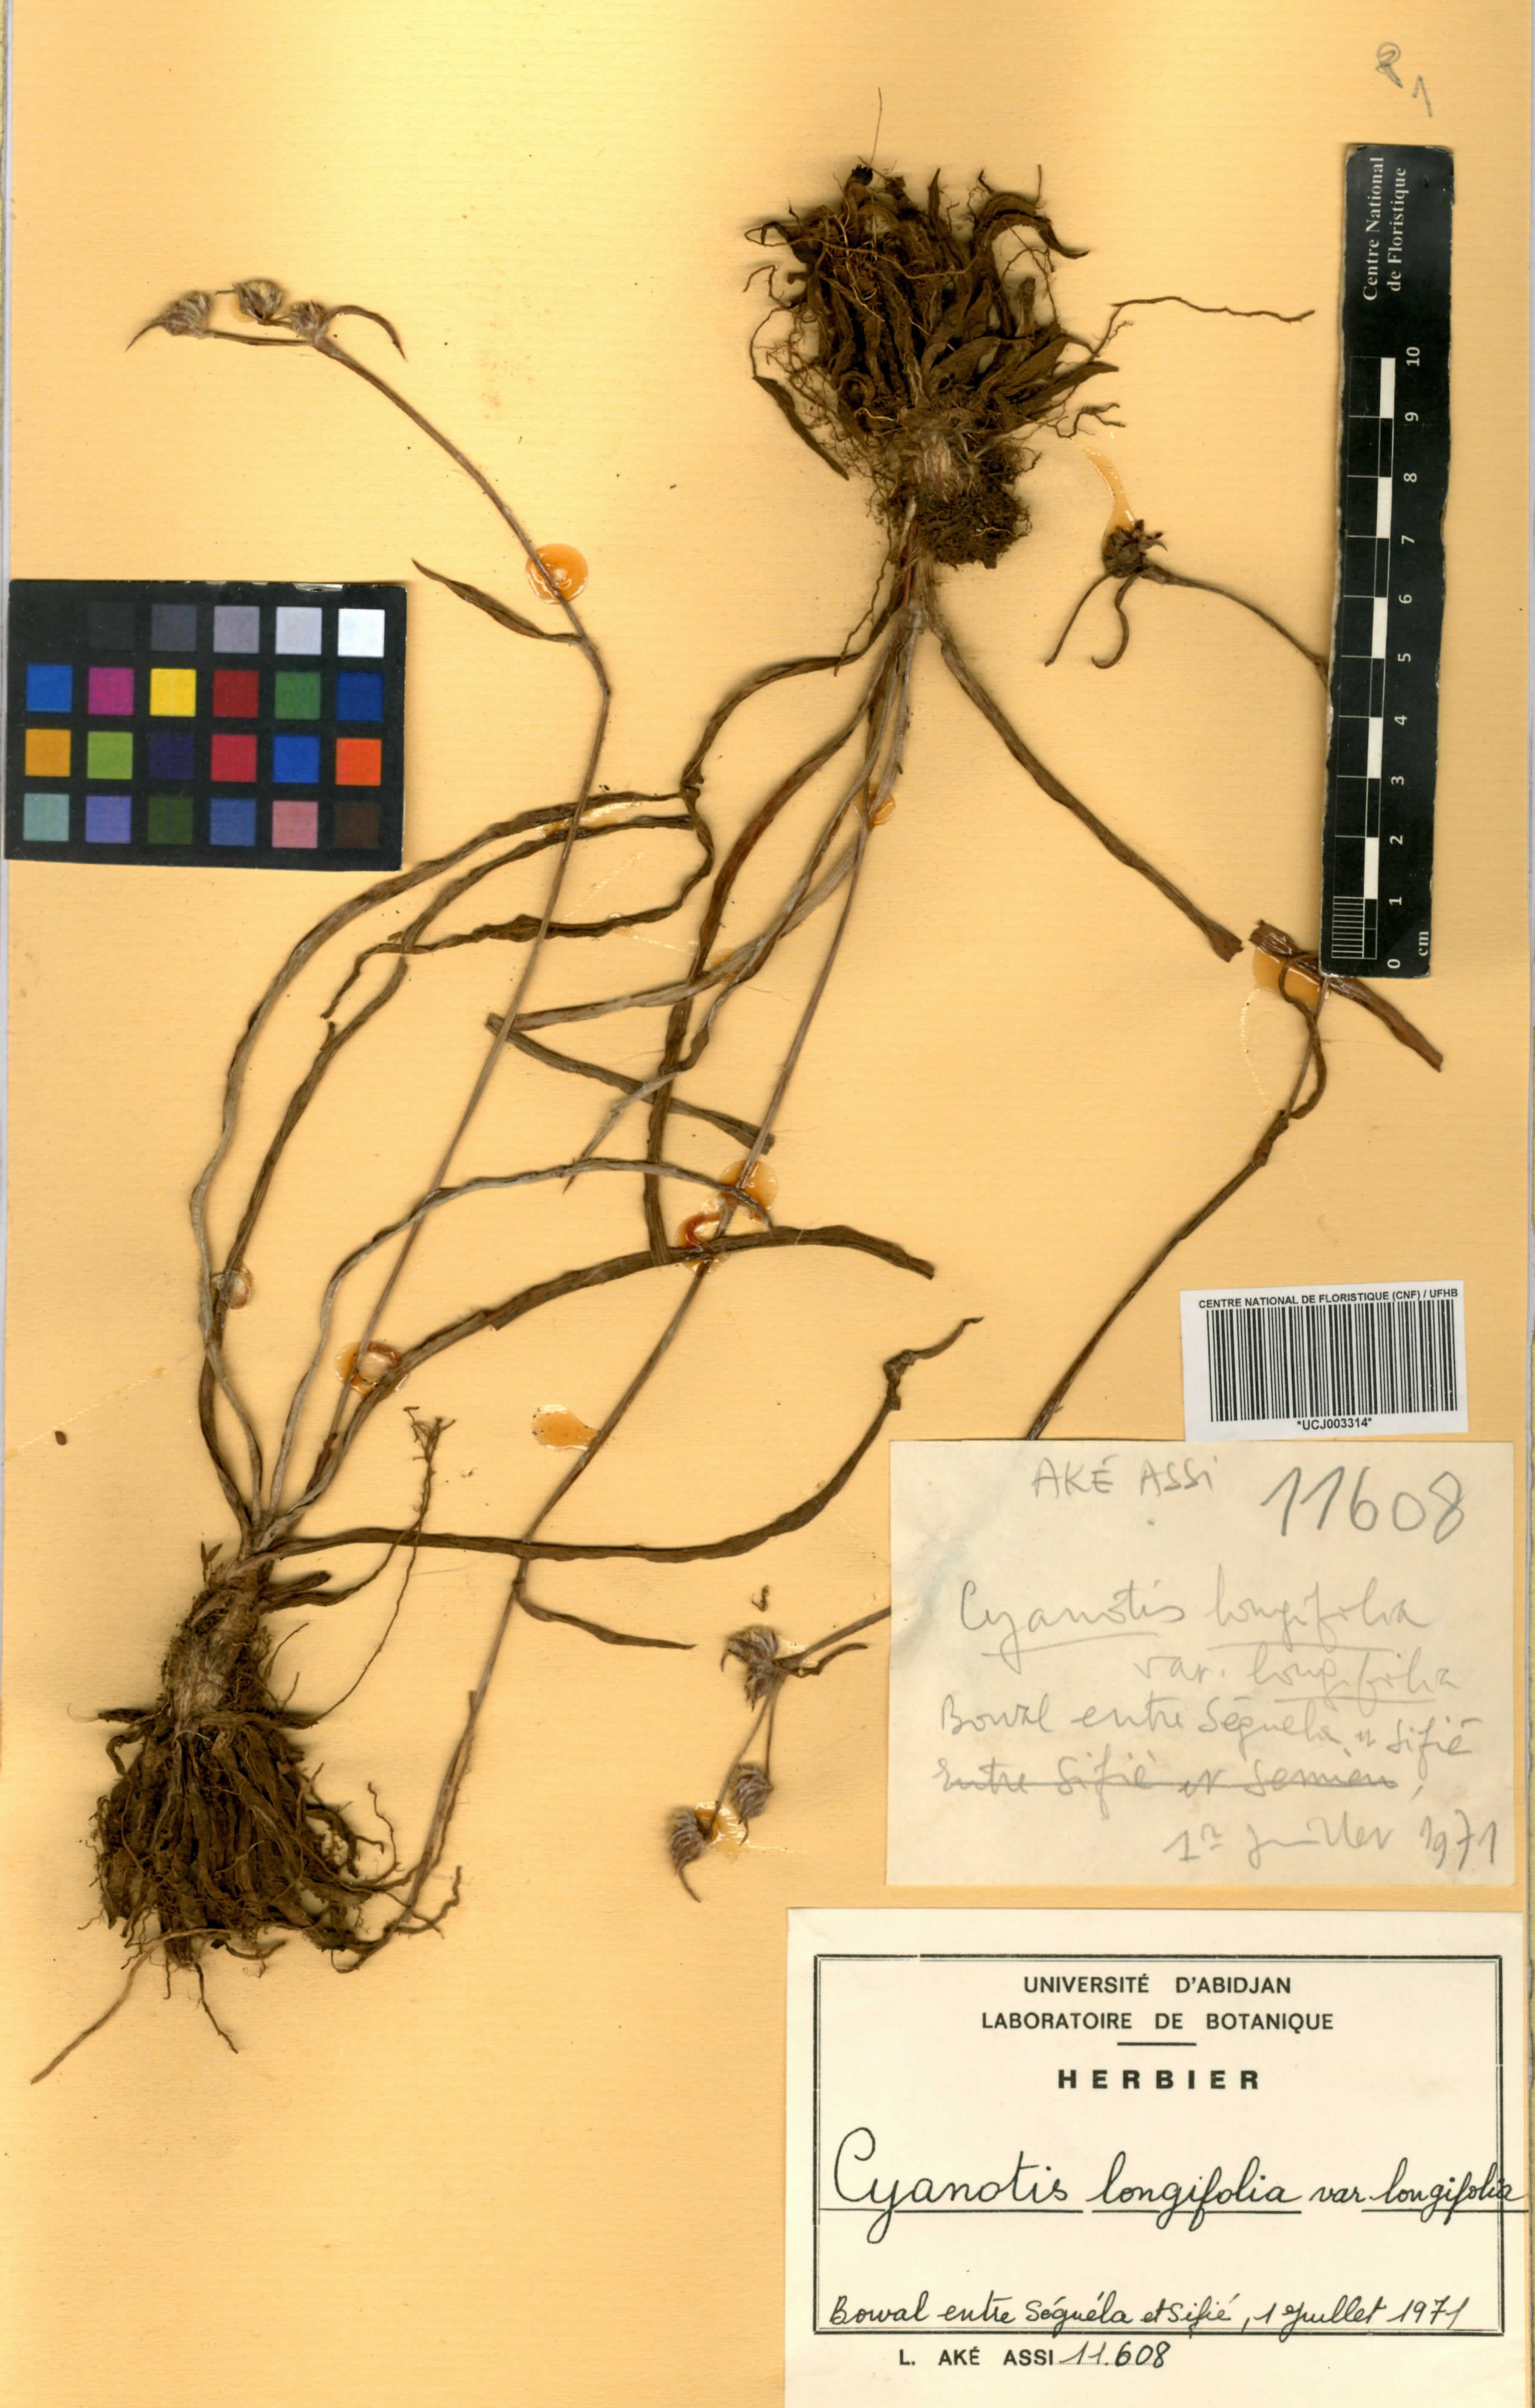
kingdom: Plantae
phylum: Tracheophyta
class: Liliopsida
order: Commelinales
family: Commelinaceae
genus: Cyanotis
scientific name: Cyanotis longifolia
